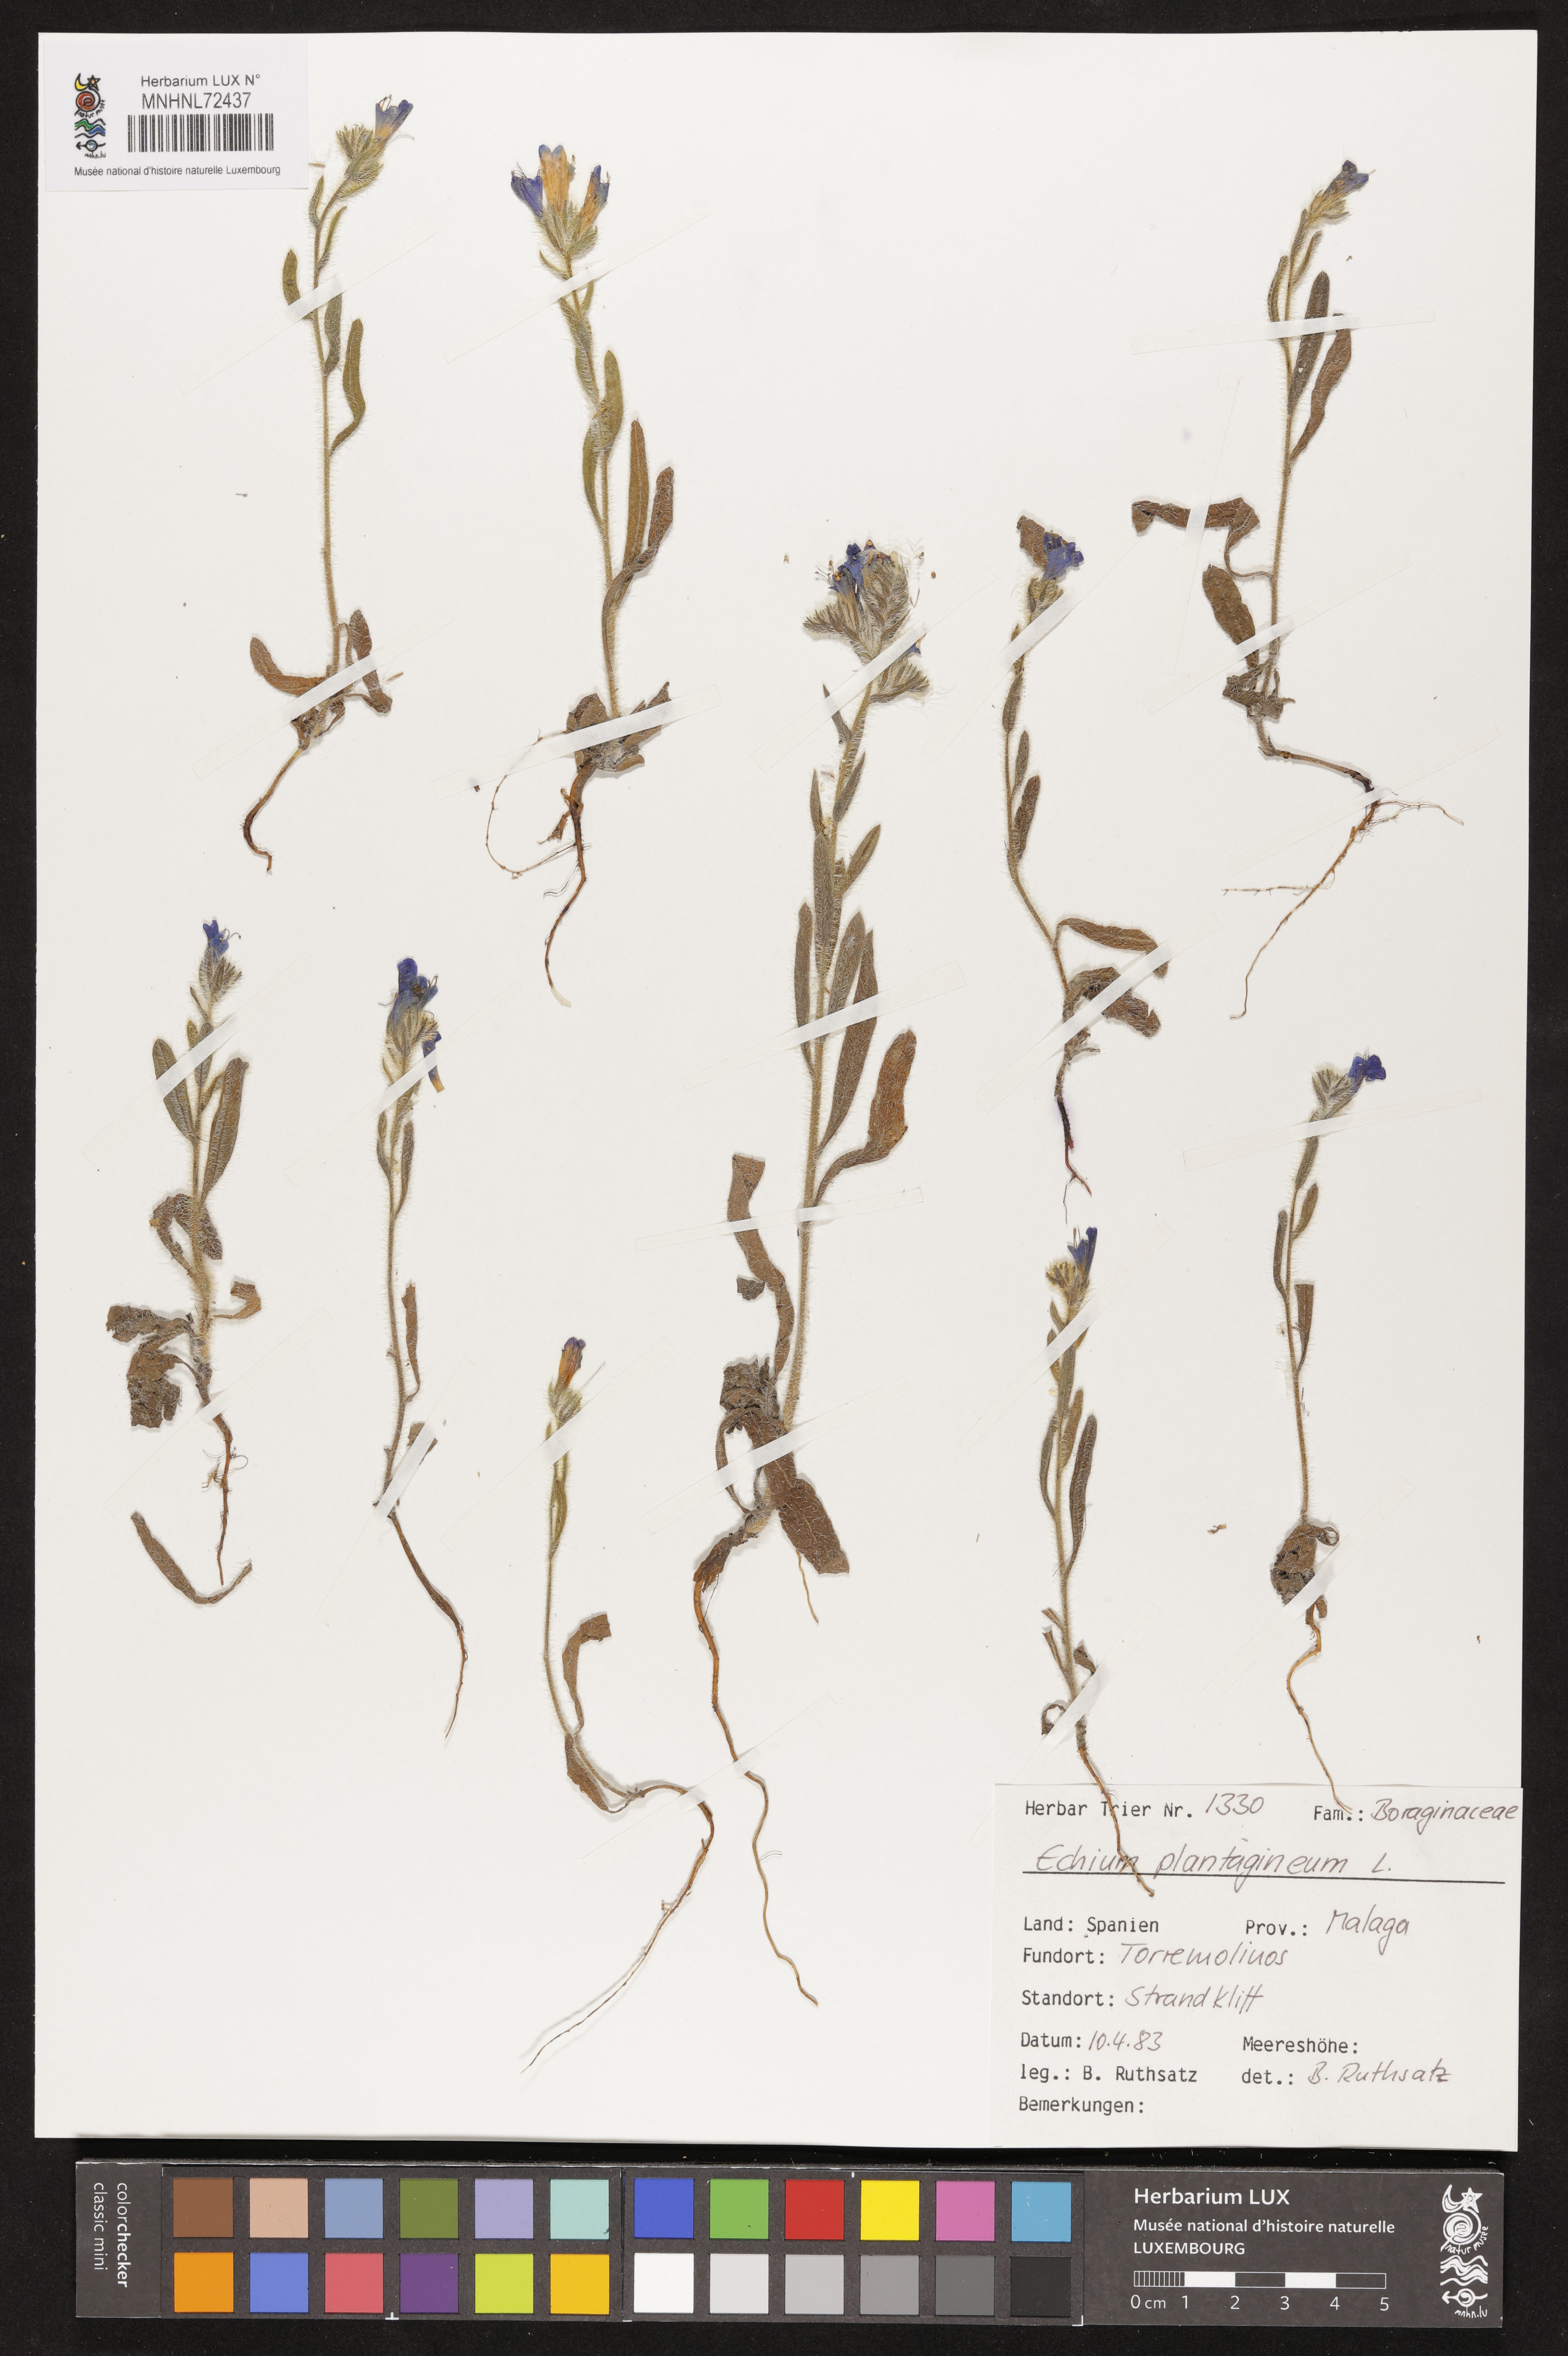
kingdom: Plantae
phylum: Tracheophyta
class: Magnoliopsida
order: Boraginales
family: Boraginaceae
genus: Echium
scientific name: Echium plantagineum
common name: Purple viper's-bugloss
